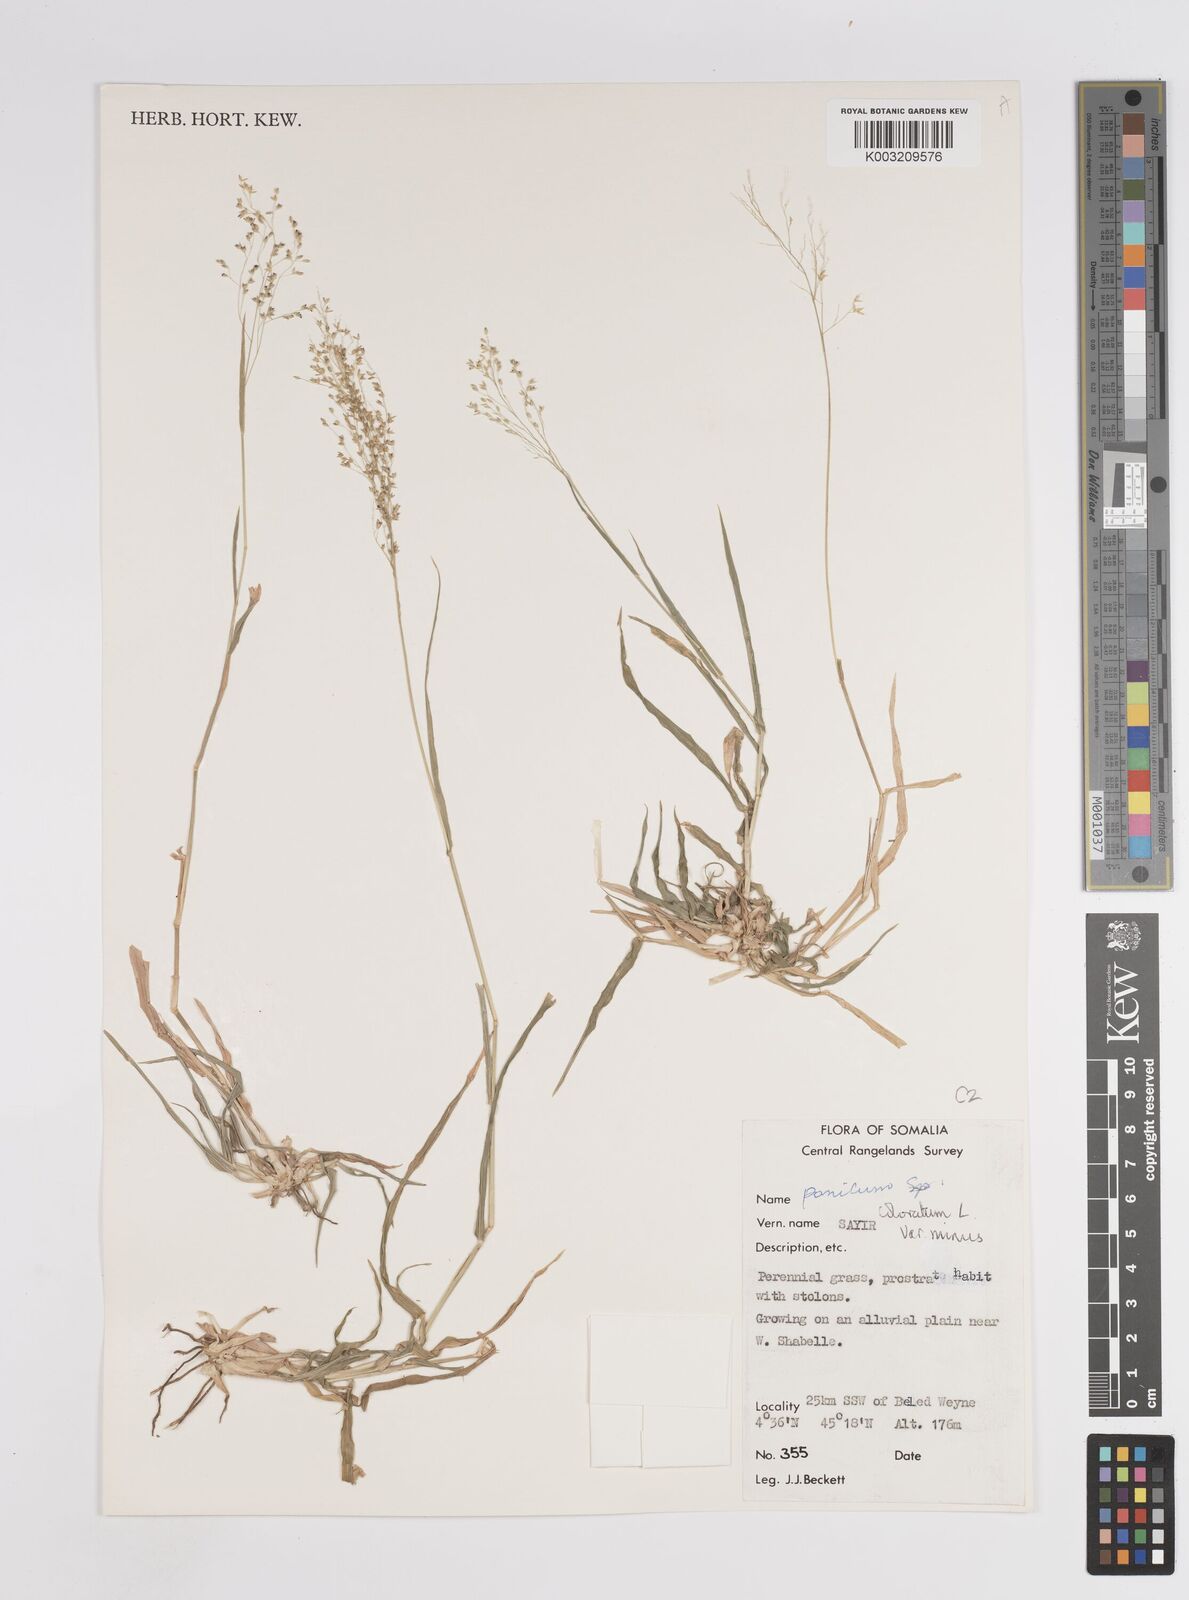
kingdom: Plantae
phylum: Tracheophyta
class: Liliopsida
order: Poales
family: Poaceae
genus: Panicum
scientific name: Panicum coloratum
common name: Kleingrass
